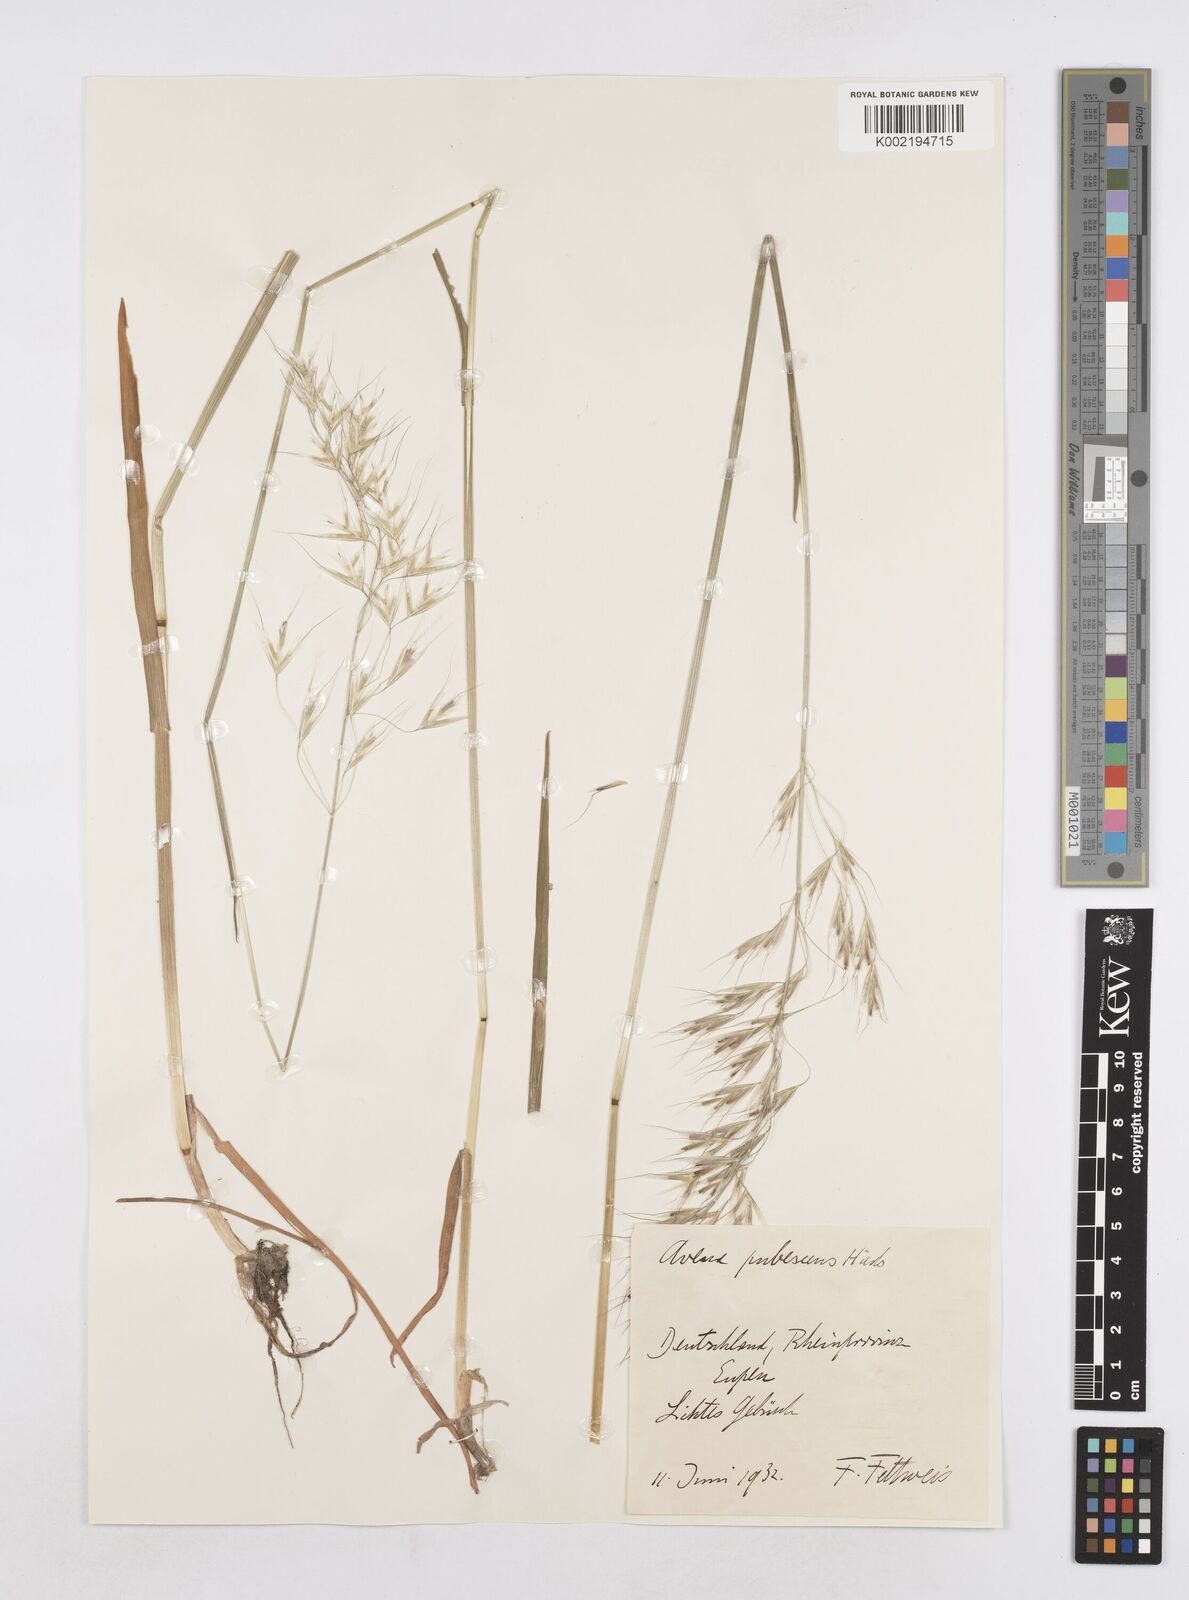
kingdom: Plantae
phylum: Tracheophyta
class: Liliopsida
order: Poales
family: Poaceae
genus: Avenula
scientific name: Avenula pubescens
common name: Downy alpine oatgrass
